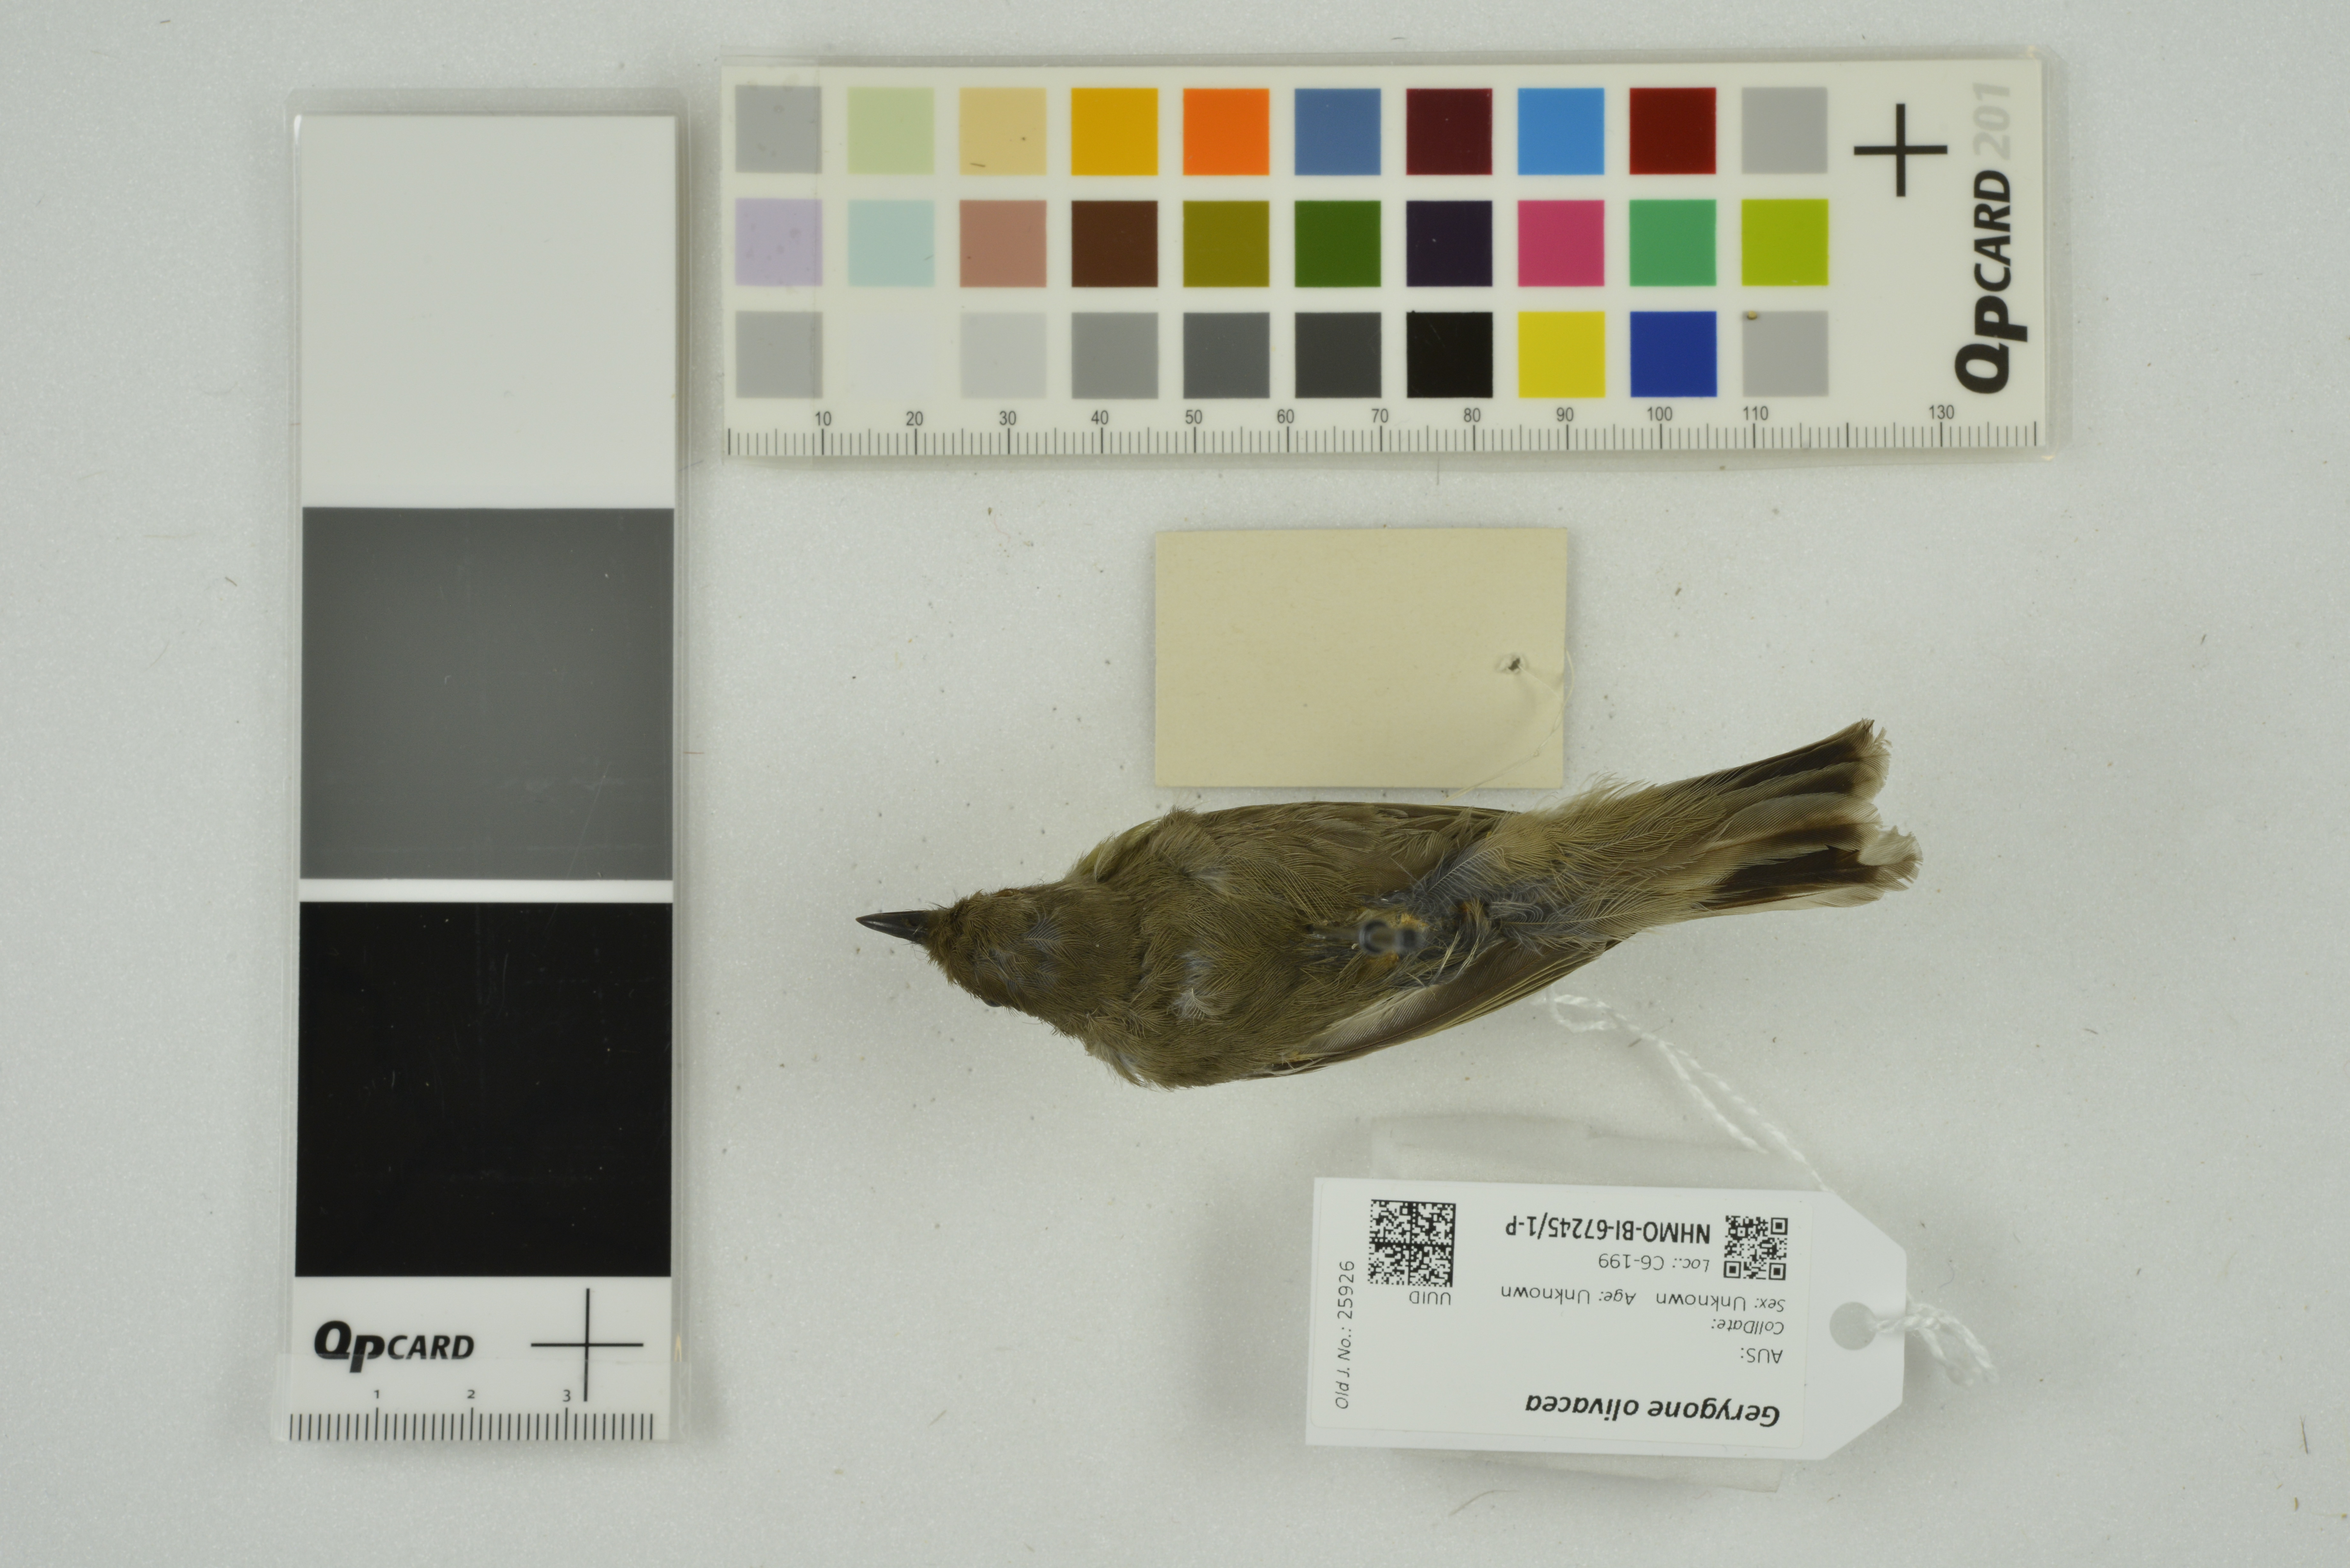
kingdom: Animalia
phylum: Chordata
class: Aves
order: Passeriformes
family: Acanthizidae
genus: Gerygone
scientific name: Gerygone olivacea
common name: White-throated gerygone
